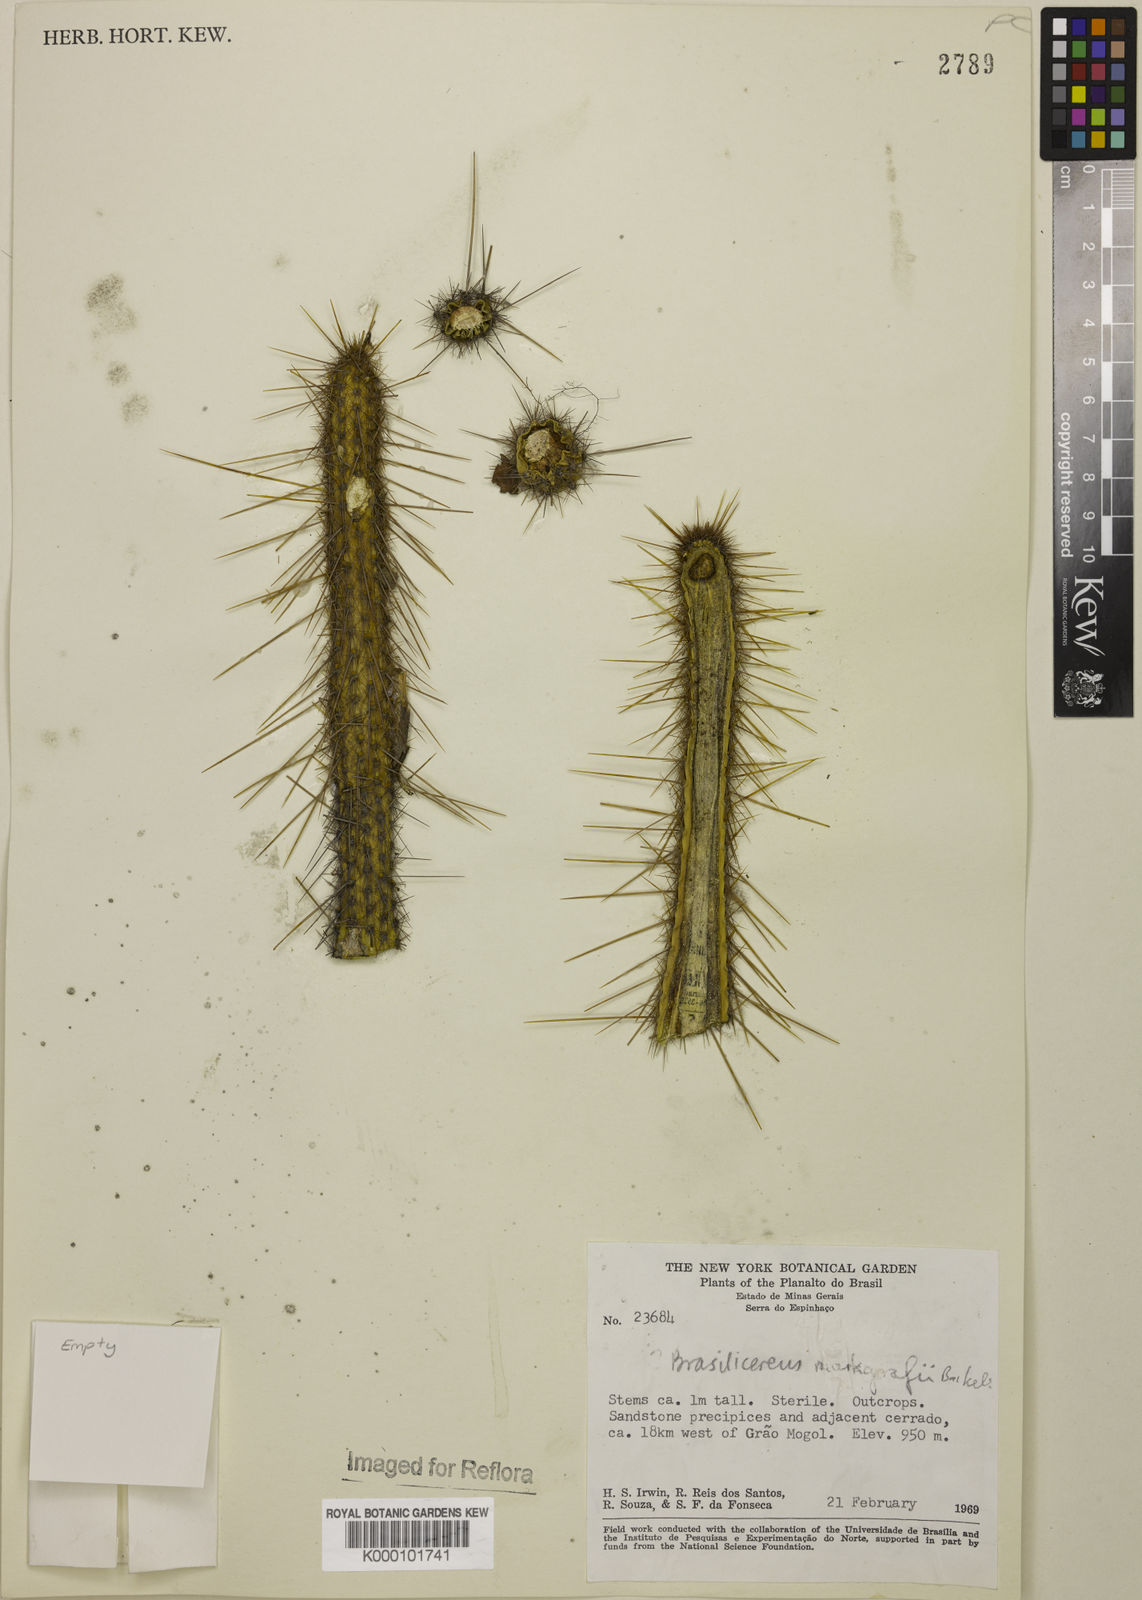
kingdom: Plantae
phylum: Tracheophyta
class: Magnoliopsida
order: Caryophyllales
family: Cactaceae
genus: Brasilicereus
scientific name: Brasilicereus markgrafii
